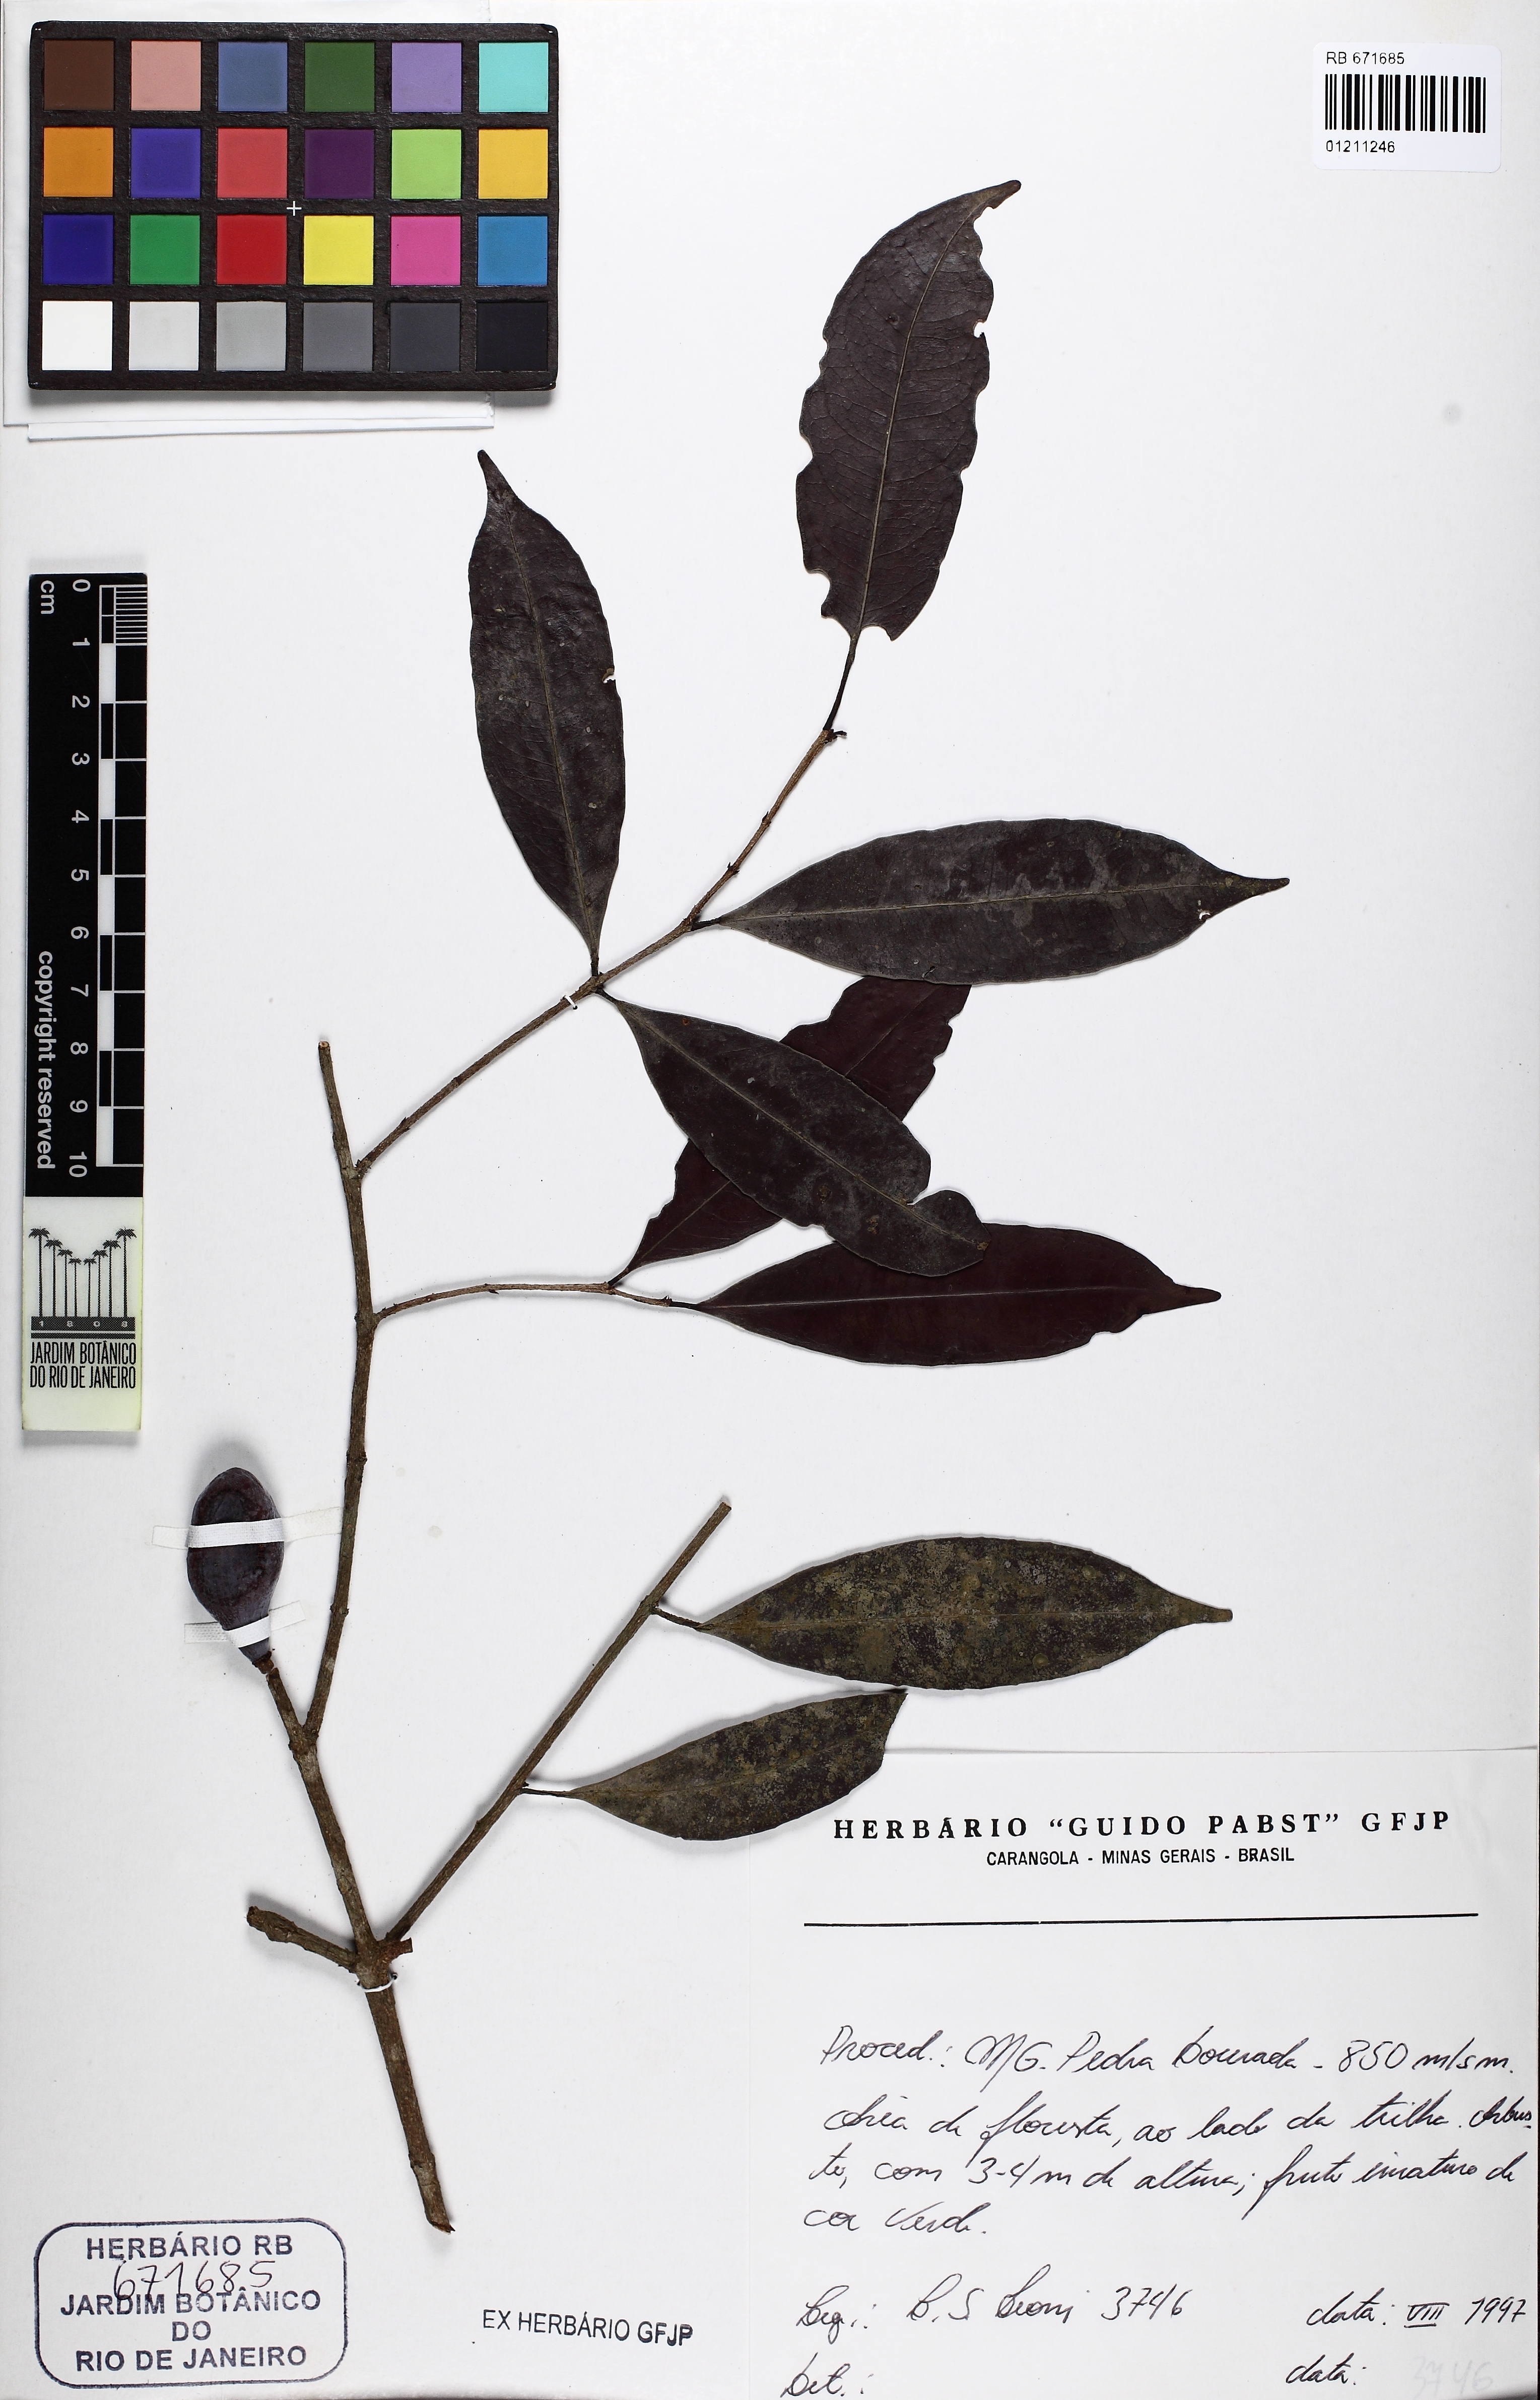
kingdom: Plantae
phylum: Tracheophyta
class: Magnoliopsida
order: Malpighiales
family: Humiriaceae
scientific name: Humiriaceae
